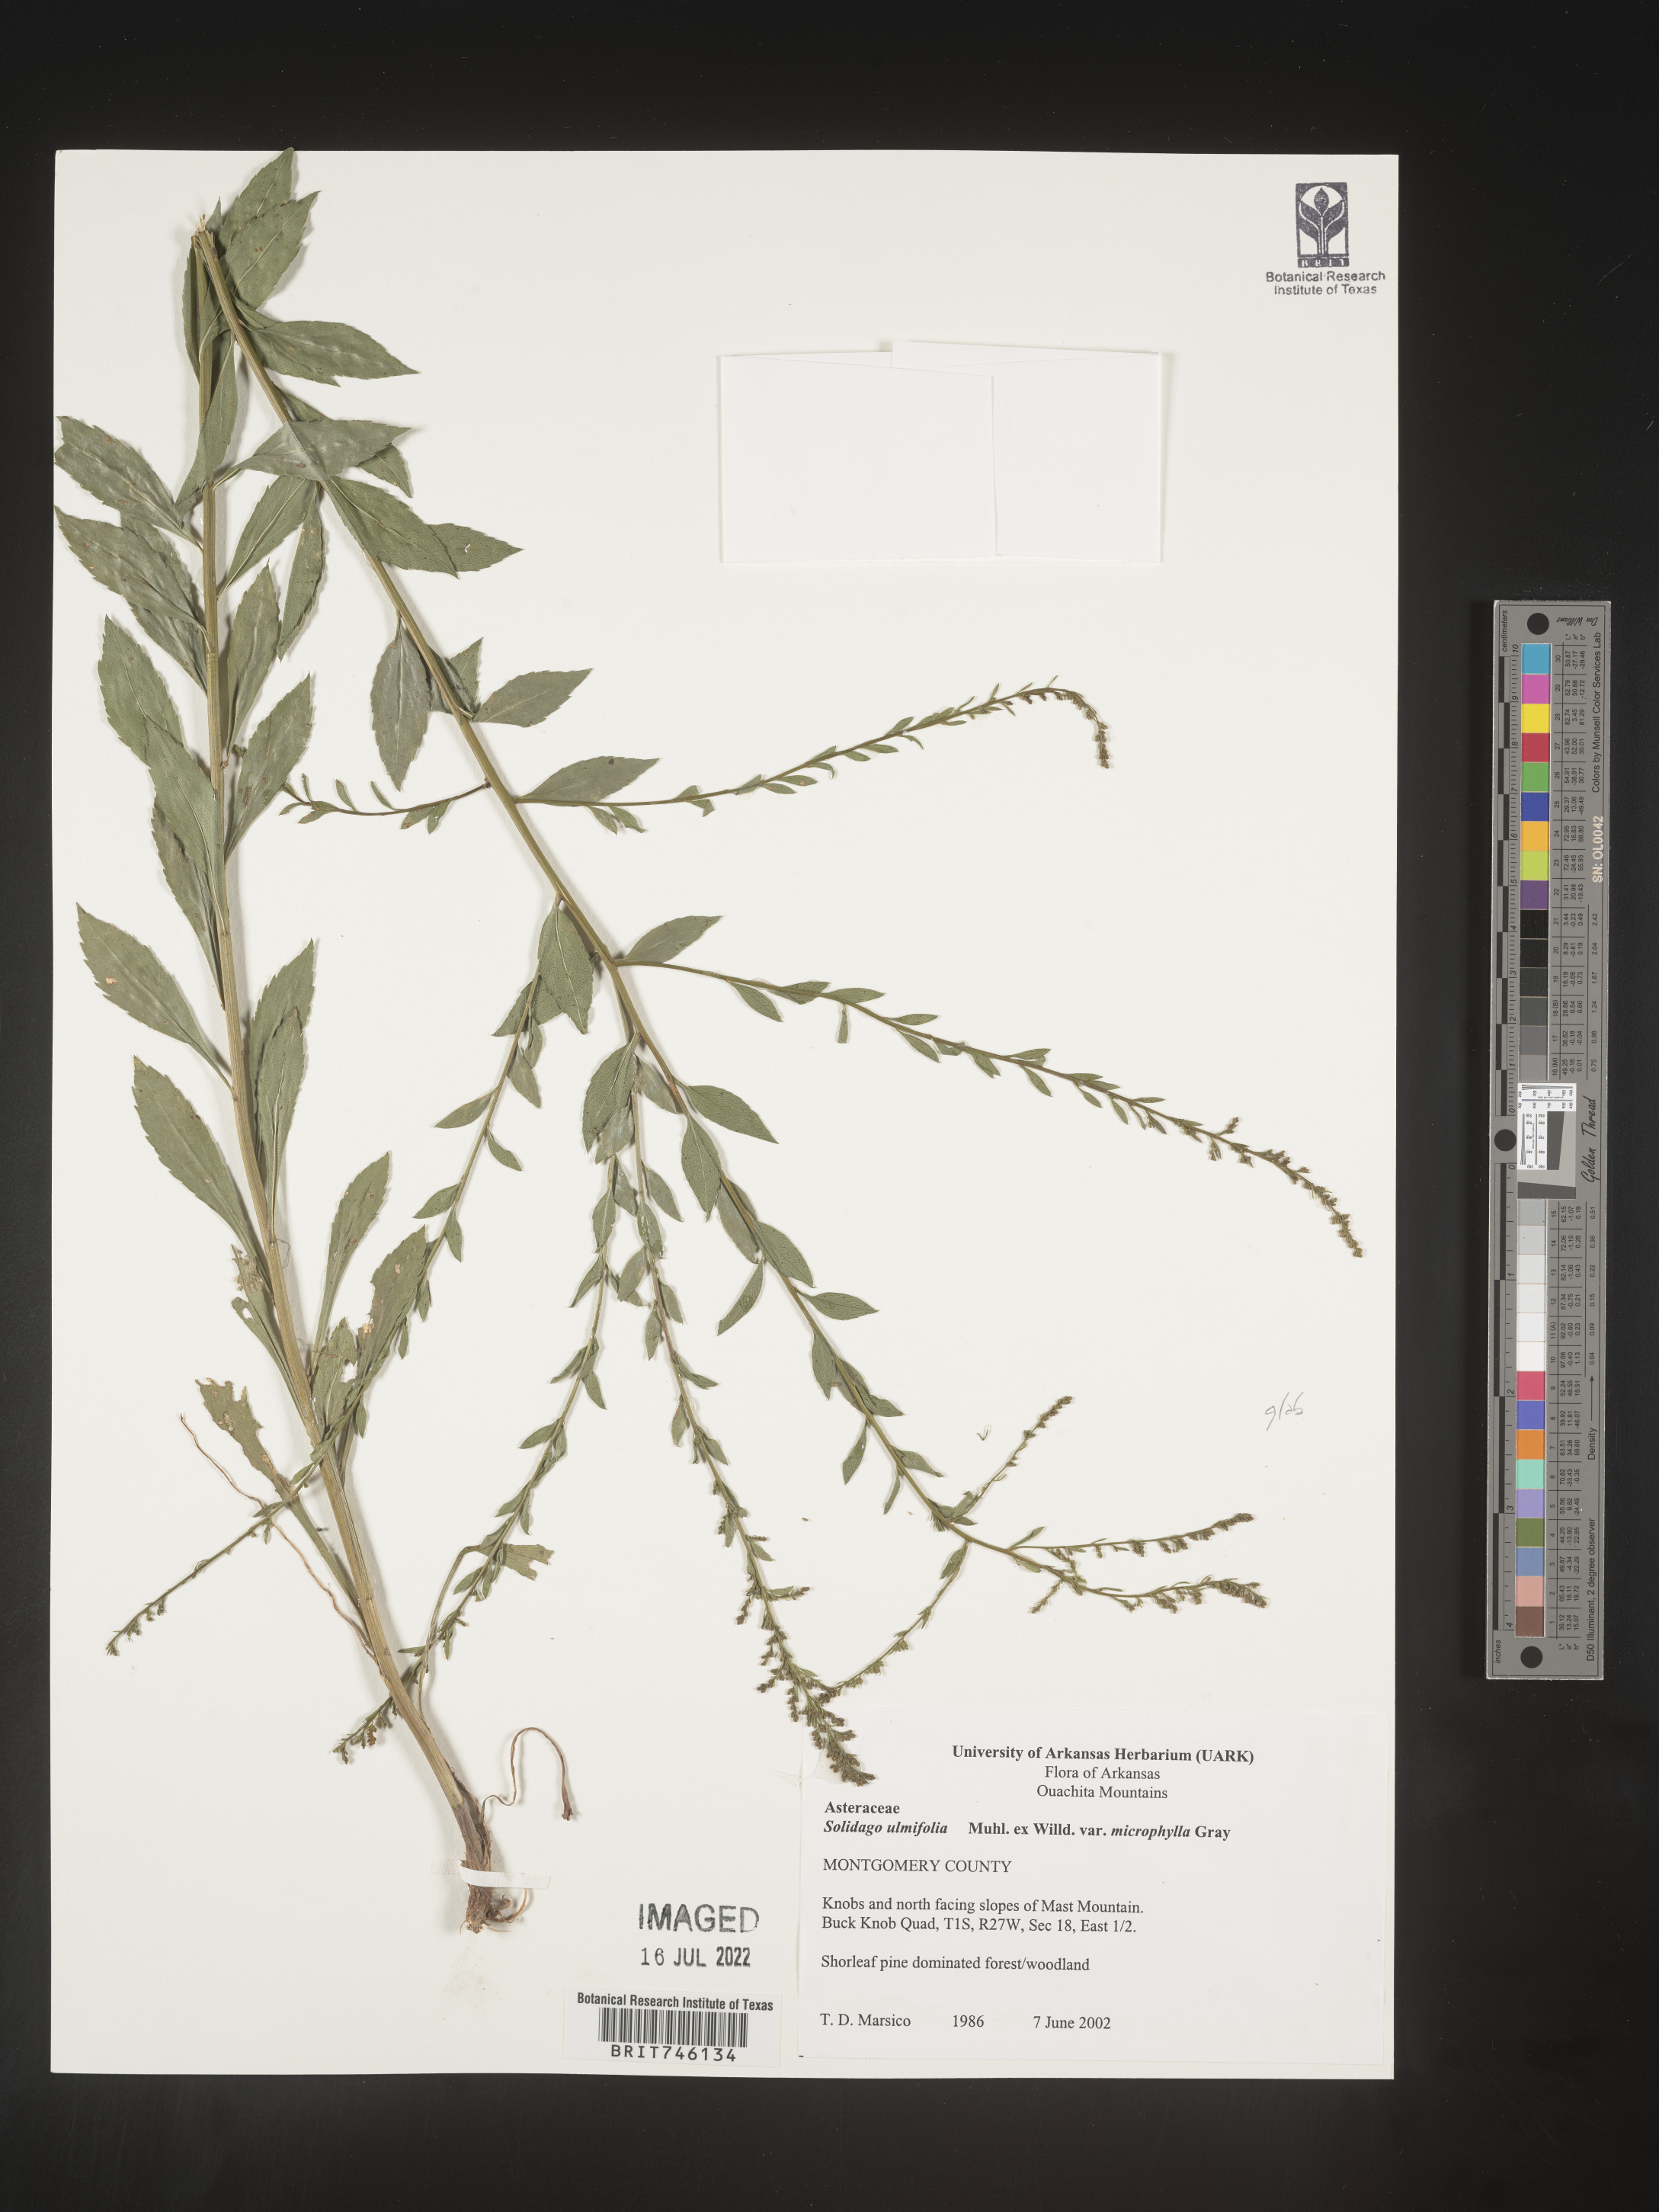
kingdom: Plantae
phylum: Tracheophyta
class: Magnoliopsida
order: Asterales
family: Asteraceae
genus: Solidago
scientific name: Solidago delicatula
